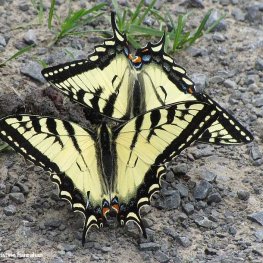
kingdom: Animalia
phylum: Arthropoda
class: Insecta
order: Lepidoptera
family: Papilionidae
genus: Pterourus
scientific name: Pterourus canadensis
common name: Canadian Tiger Swallowtail
